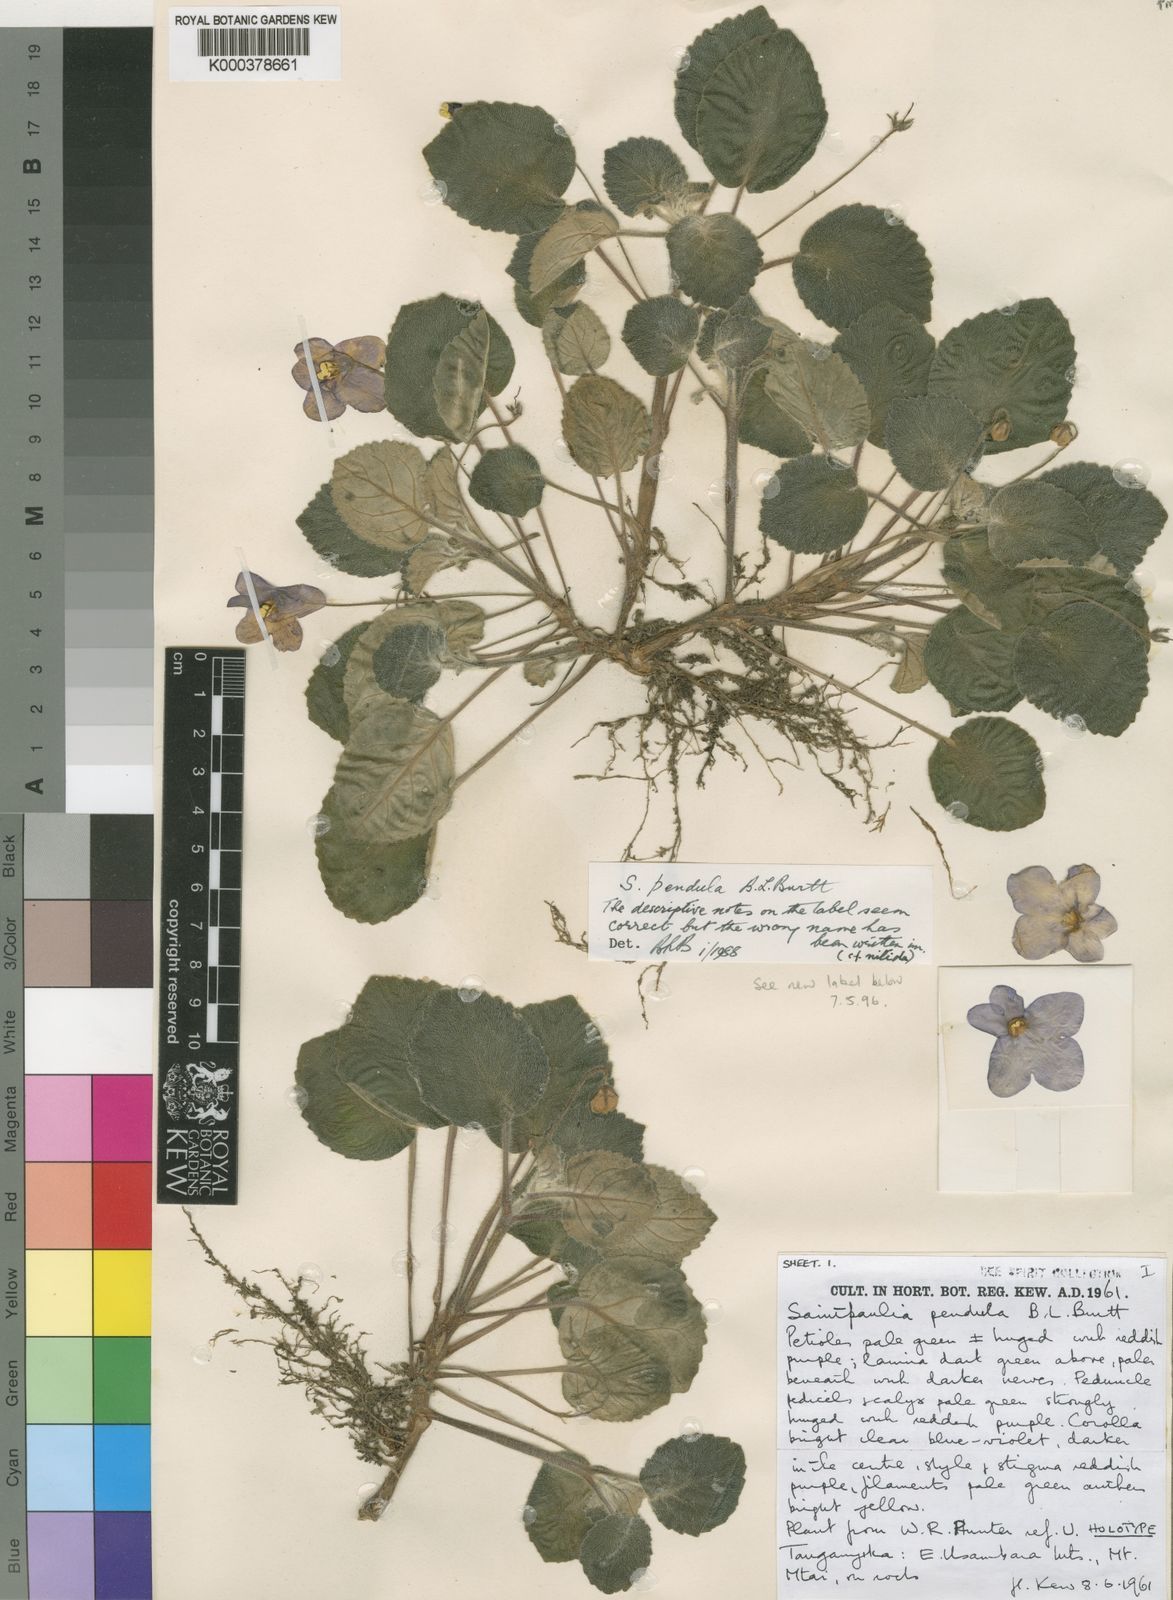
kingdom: Plantae
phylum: Tracheophyta
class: Magnoliopsida
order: Lamiales
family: Gesneriaceae
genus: Streptocarpus
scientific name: Streptocarpus ionanthus
